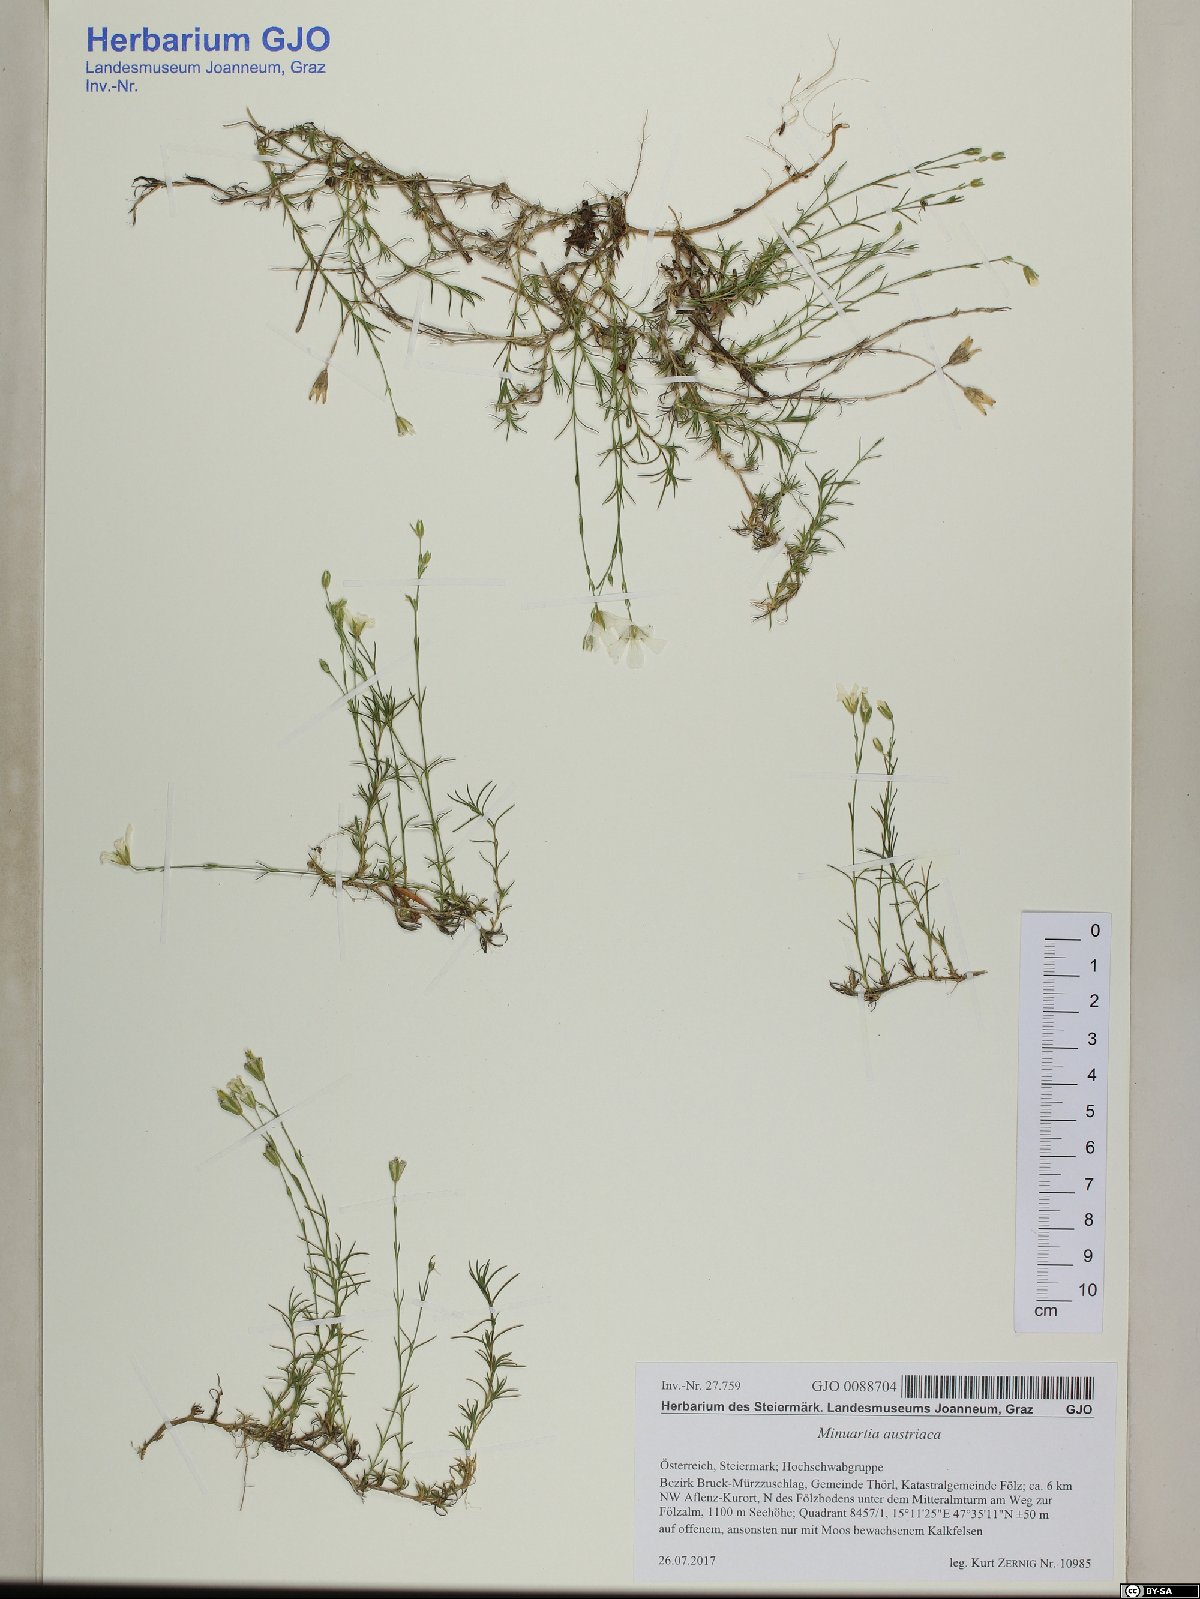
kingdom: Plantae
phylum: Tracheophyta
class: Magnoliopsida
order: Caryophyllales
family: Caryophyllaceae
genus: Sabulina
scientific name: Sabulina austriaca
